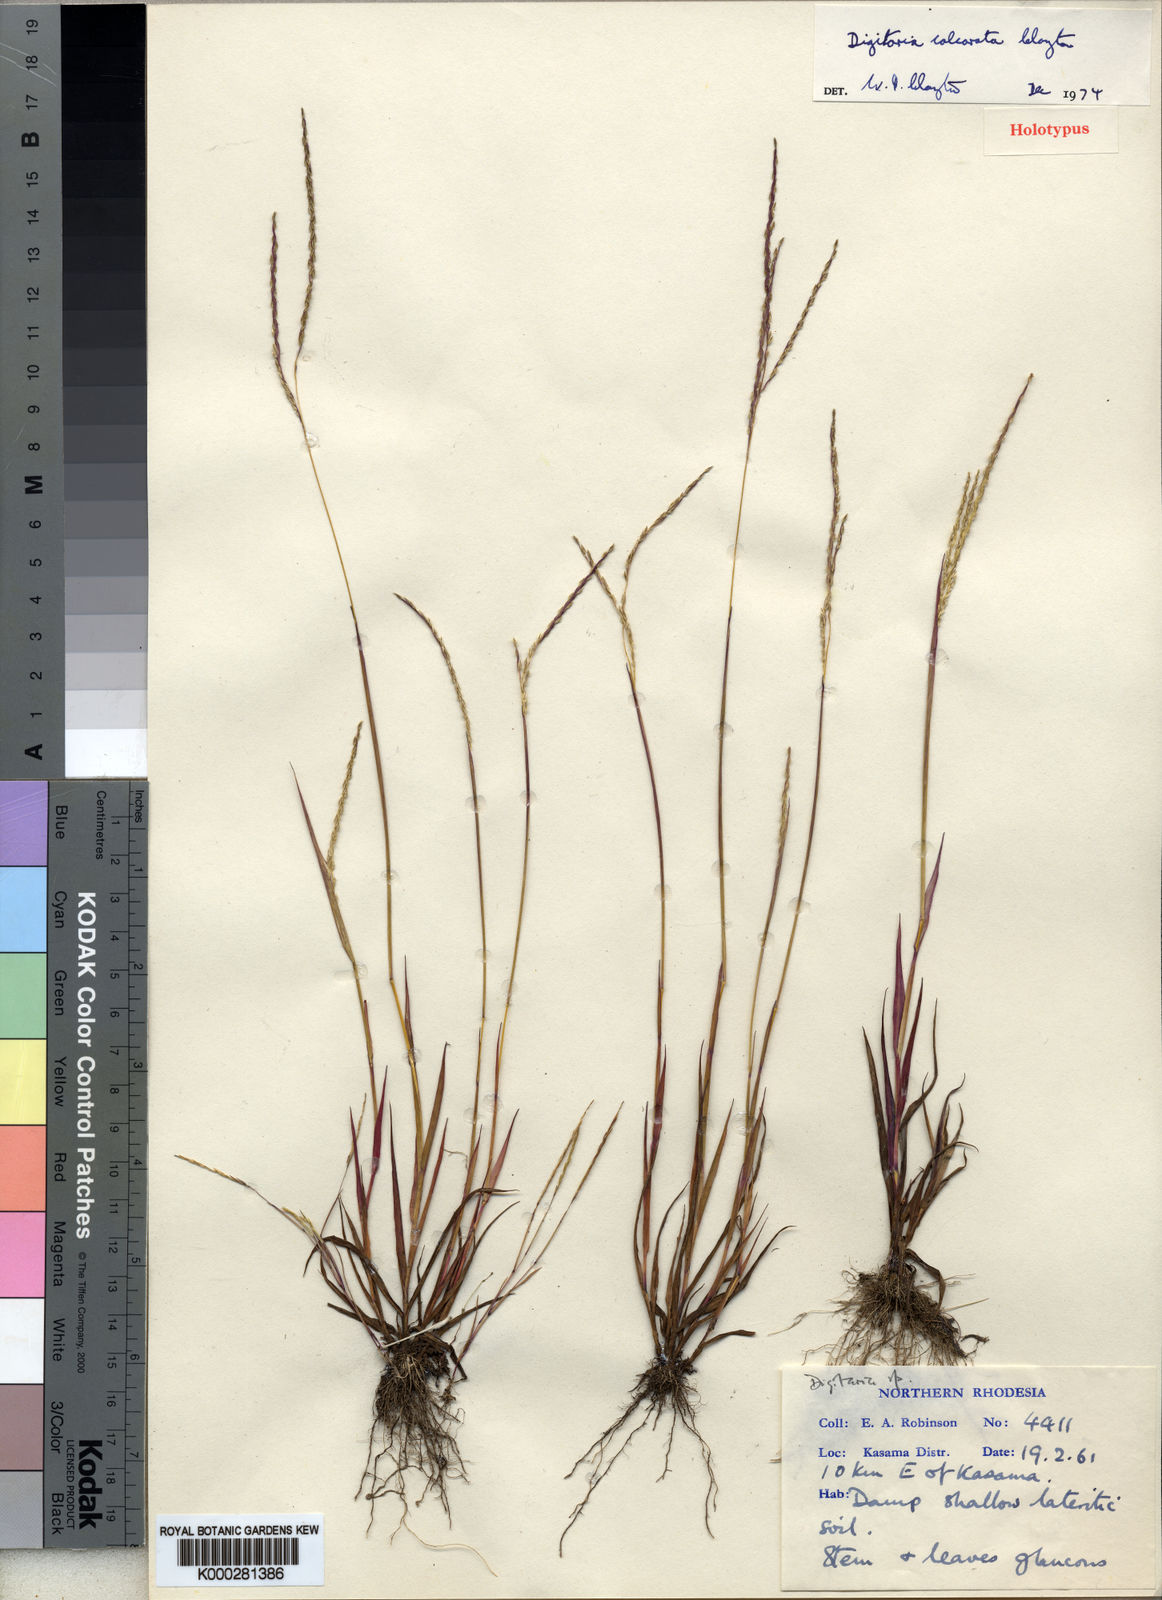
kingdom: Plantae
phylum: Tracheophyta
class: Liliopsida
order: Poales
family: Poaceae
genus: Digitaria
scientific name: Digitaria calcarata
